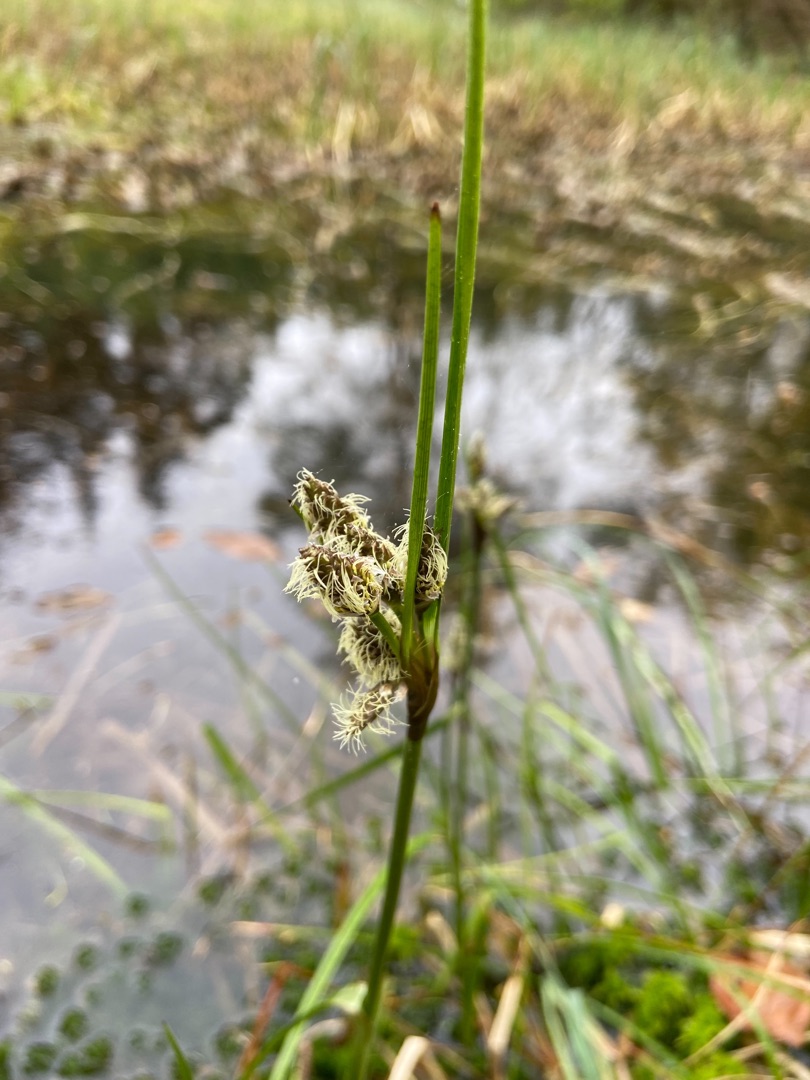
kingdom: Plantae
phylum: Tracheophyta
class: Liliopsida
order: Poales
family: Cyperaceae
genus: Eriophorum
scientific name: Eriophorum angustifolium
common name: Smalbladet kæruld
